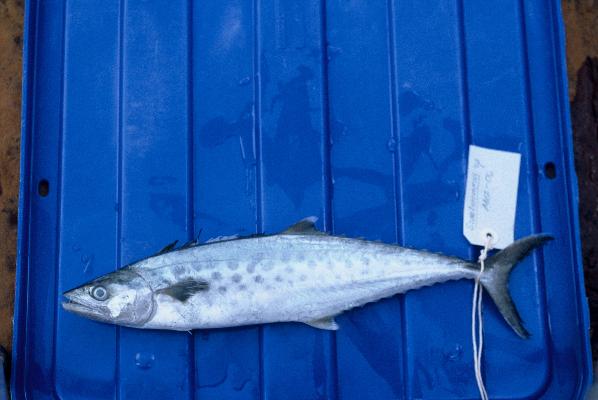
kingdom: Animalia
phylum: Chordata
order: Perciformes
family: Scombridae
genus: Scomberomorus
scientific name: Scomberomorus commerson
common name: Narrow-barred spanish mackerel
